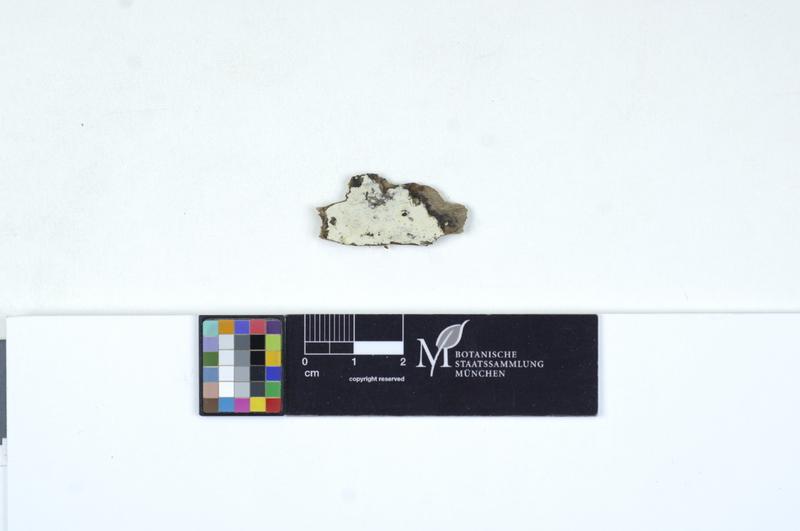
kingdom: Fungi
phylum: Basidiomycota
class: Agaricomycetes
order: Cantharellales
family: Hydnaceae
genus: Sistotrema
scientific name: Sistotrema sernanderi
